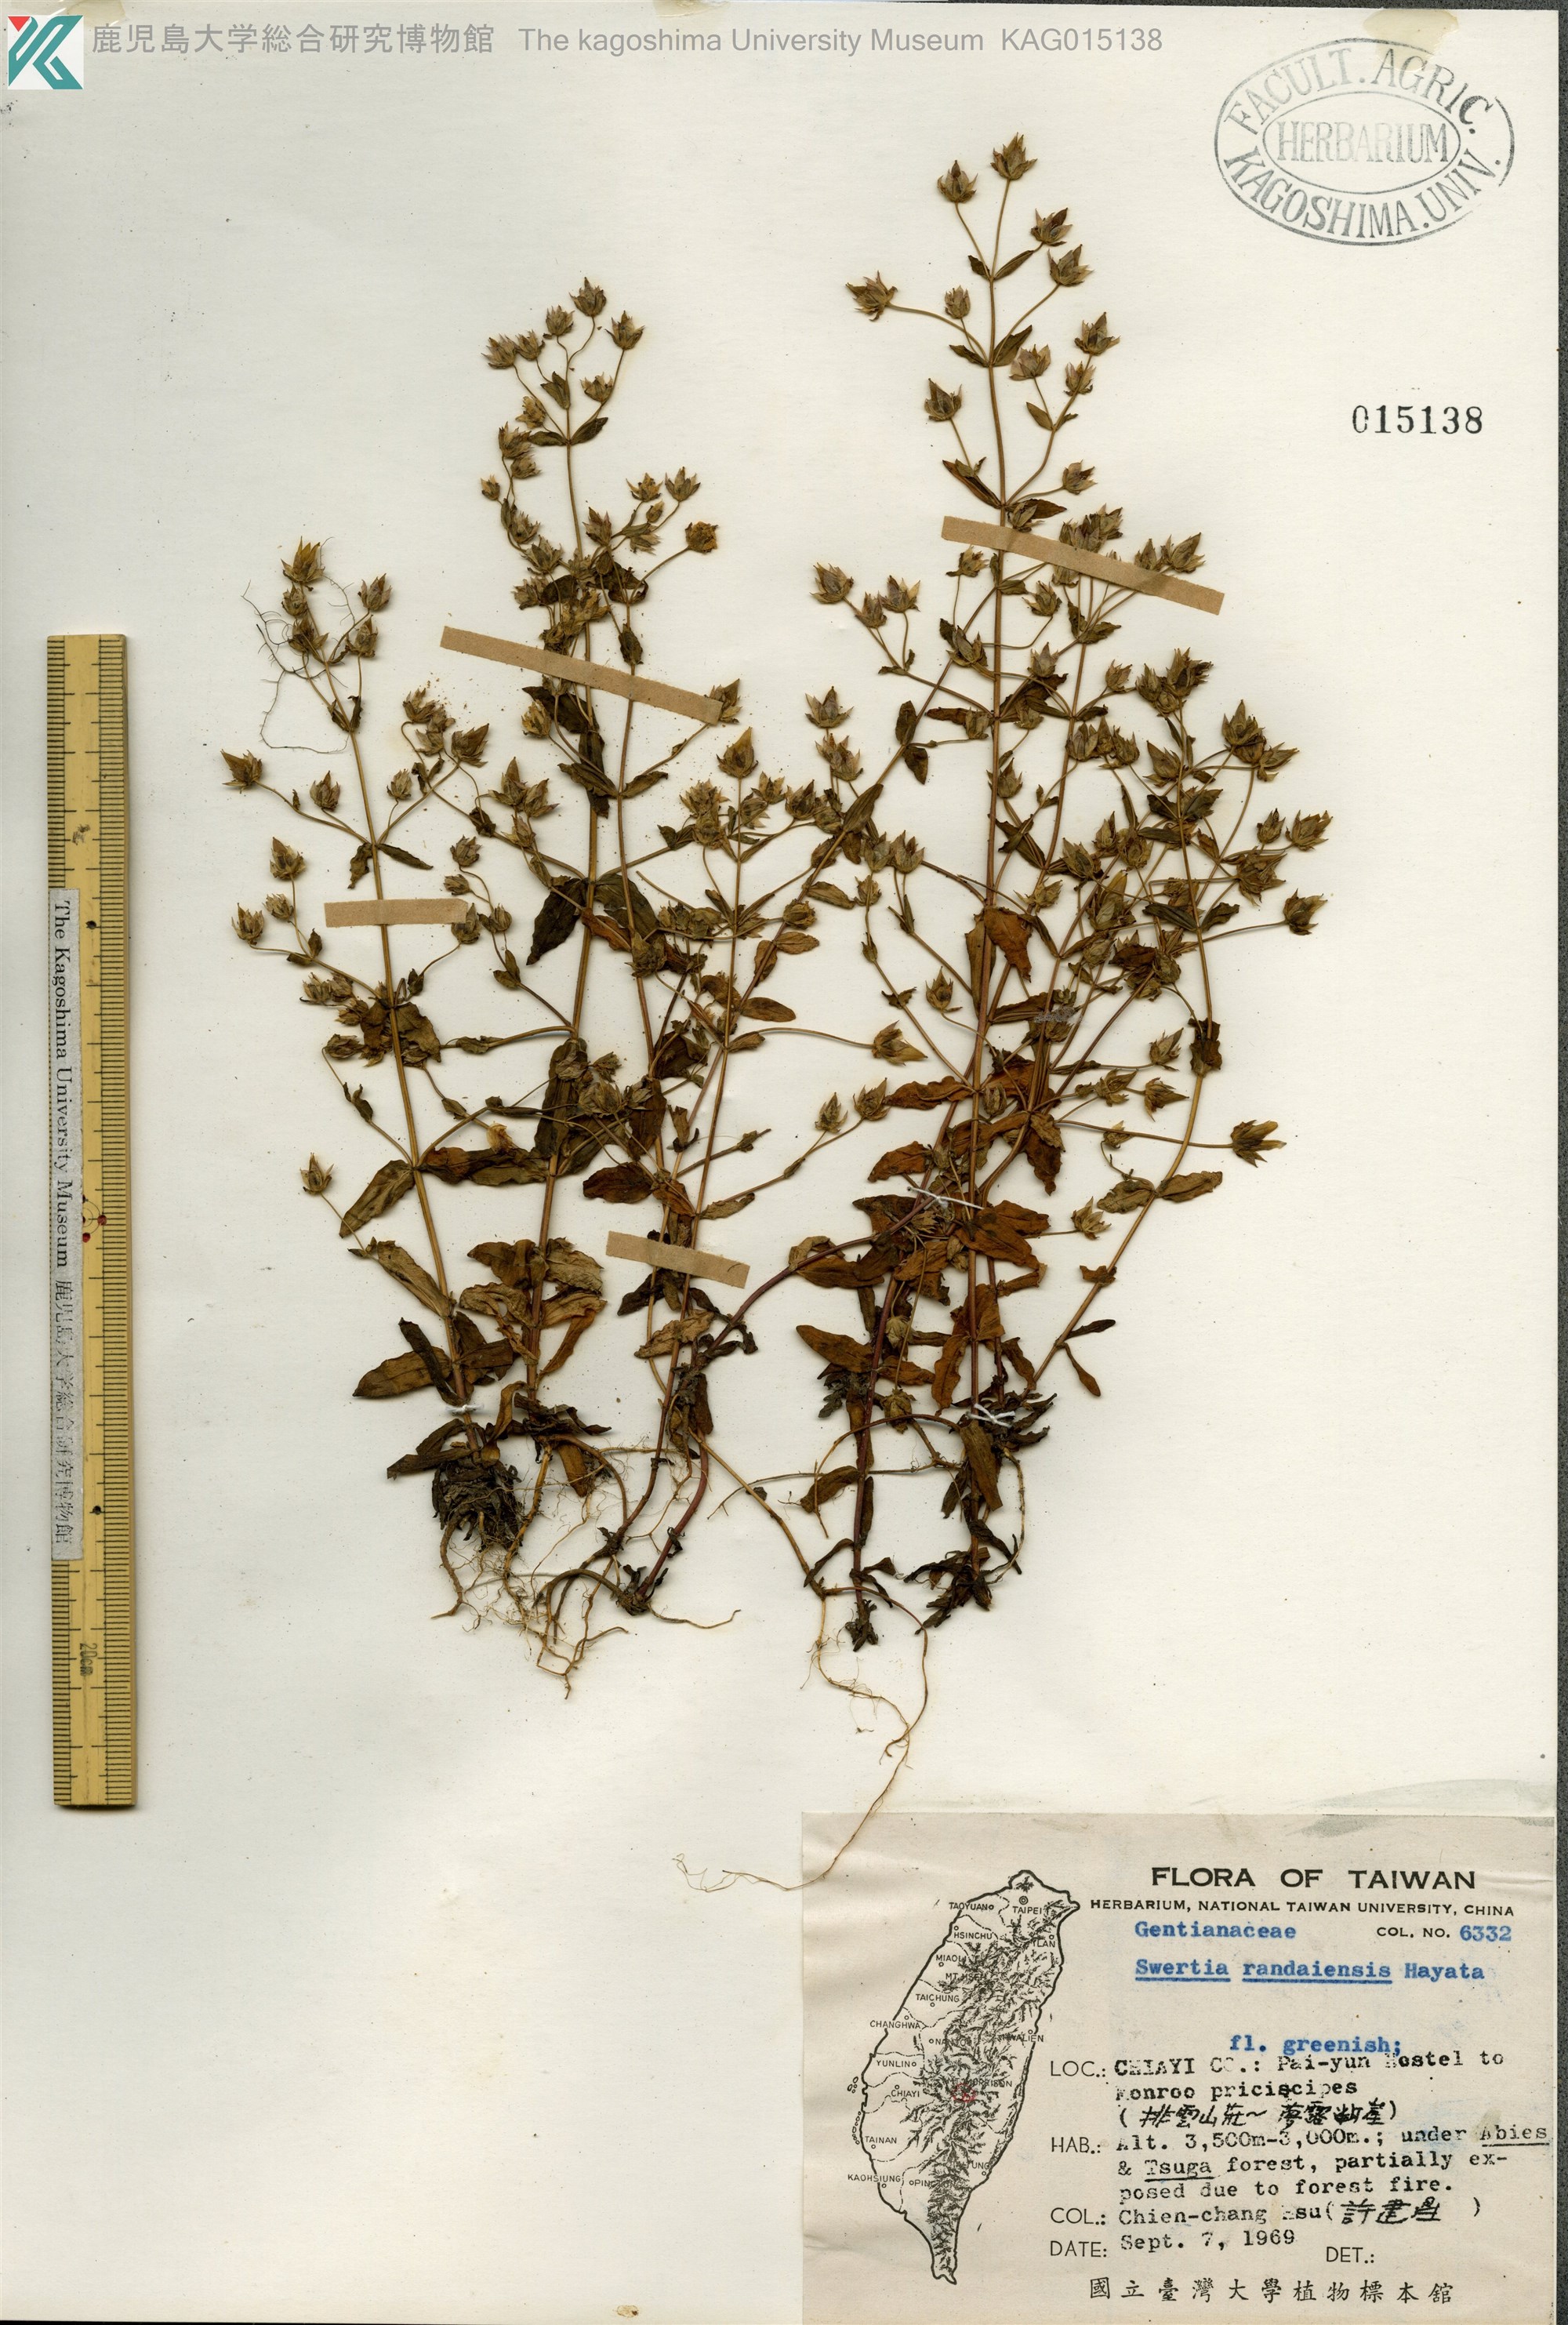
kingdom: Plantae
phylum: Tracheophyta
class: Magnoliopsida
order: Gentianales
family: Gentianaceae
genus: Swertia
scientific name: Swertia macrosperma
